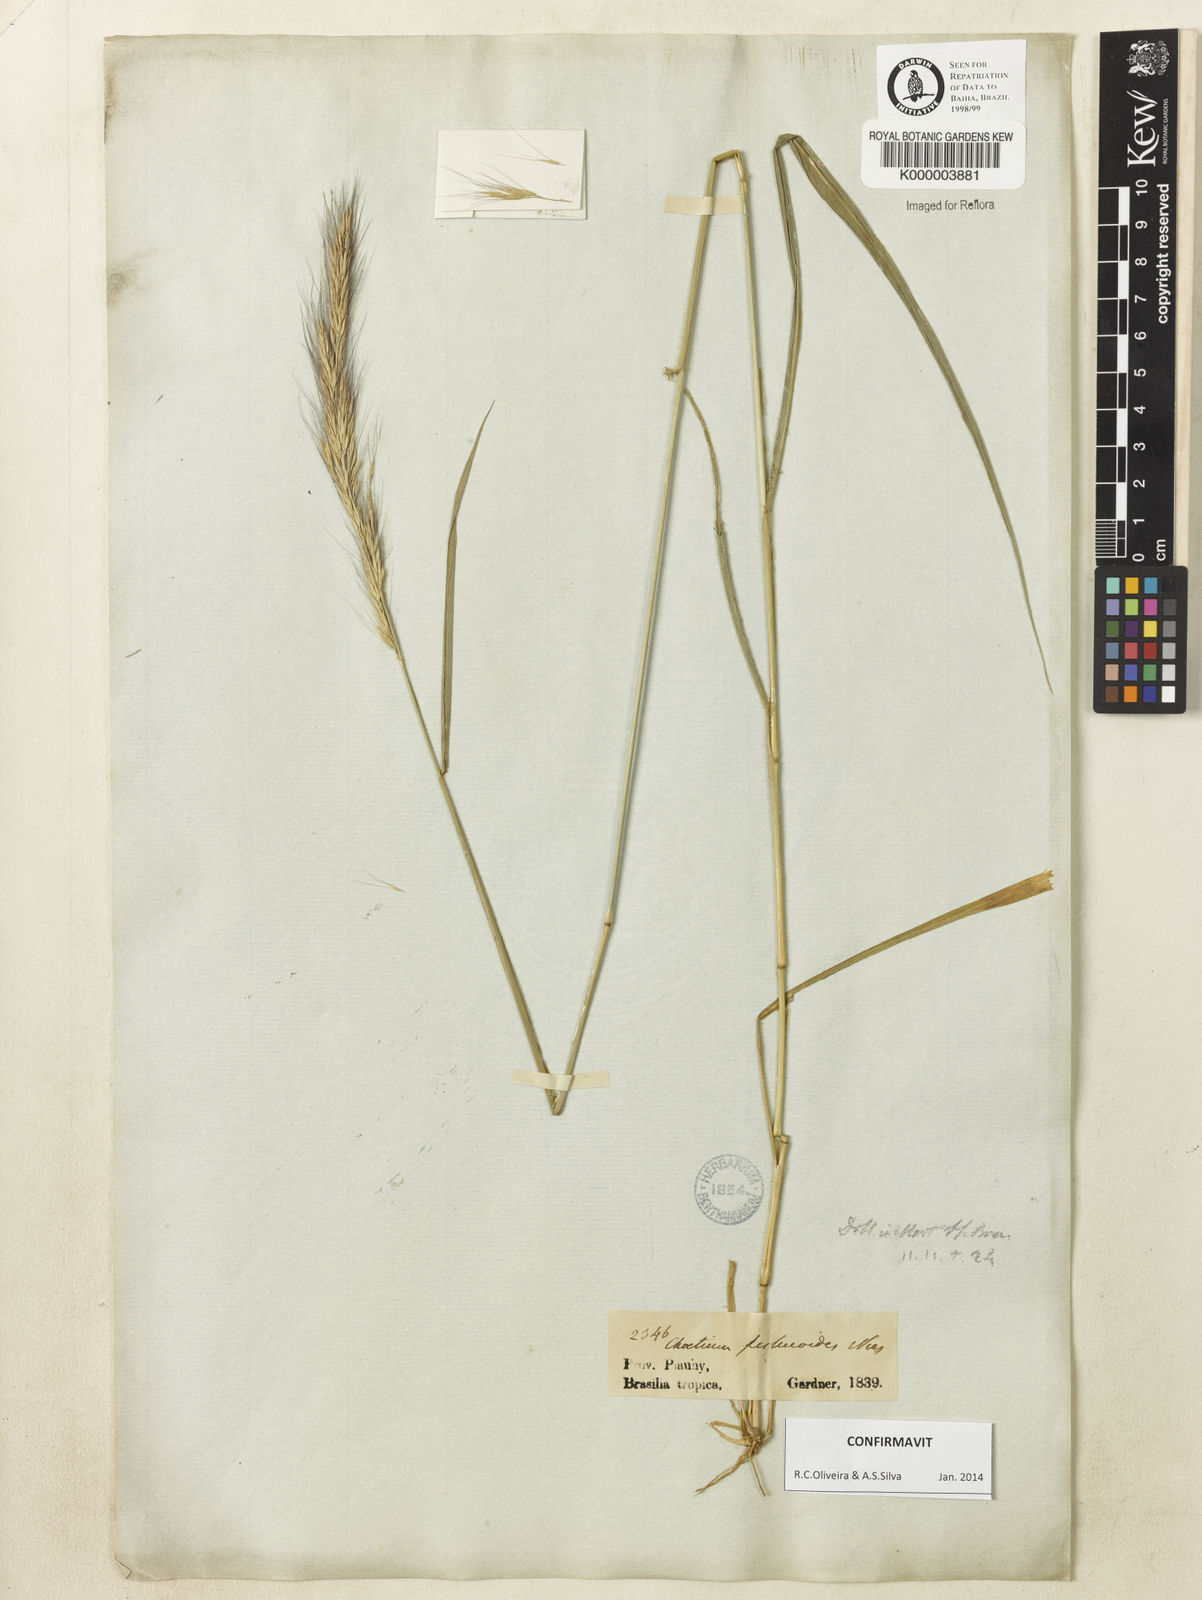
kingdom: Plantae
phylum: Tracheophyta
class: Liliopsida
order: Poales
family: Poaceae
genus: Chaetium
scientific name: Chaetium festucoides
